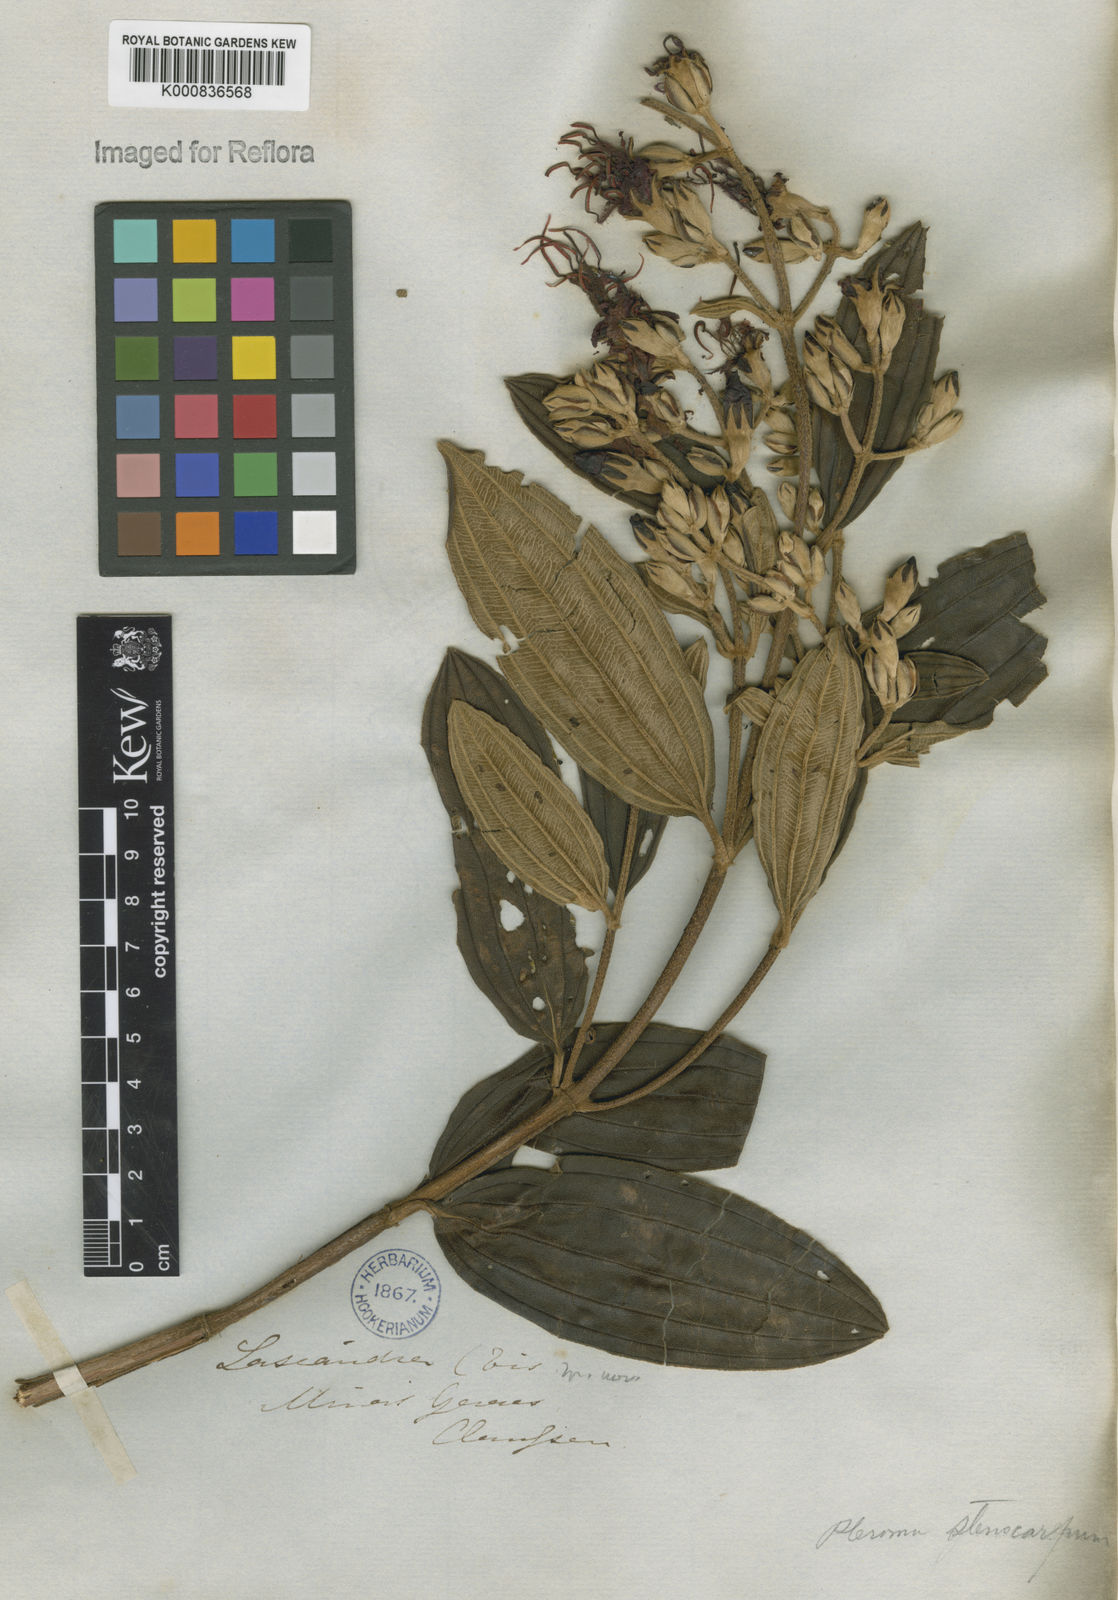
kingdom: Plantae
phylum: Tracheophyta
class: Magnoliopsida
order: Myrtales
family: Melastomataceae
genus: Pleroma
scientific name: Pleroma stenocarpum
